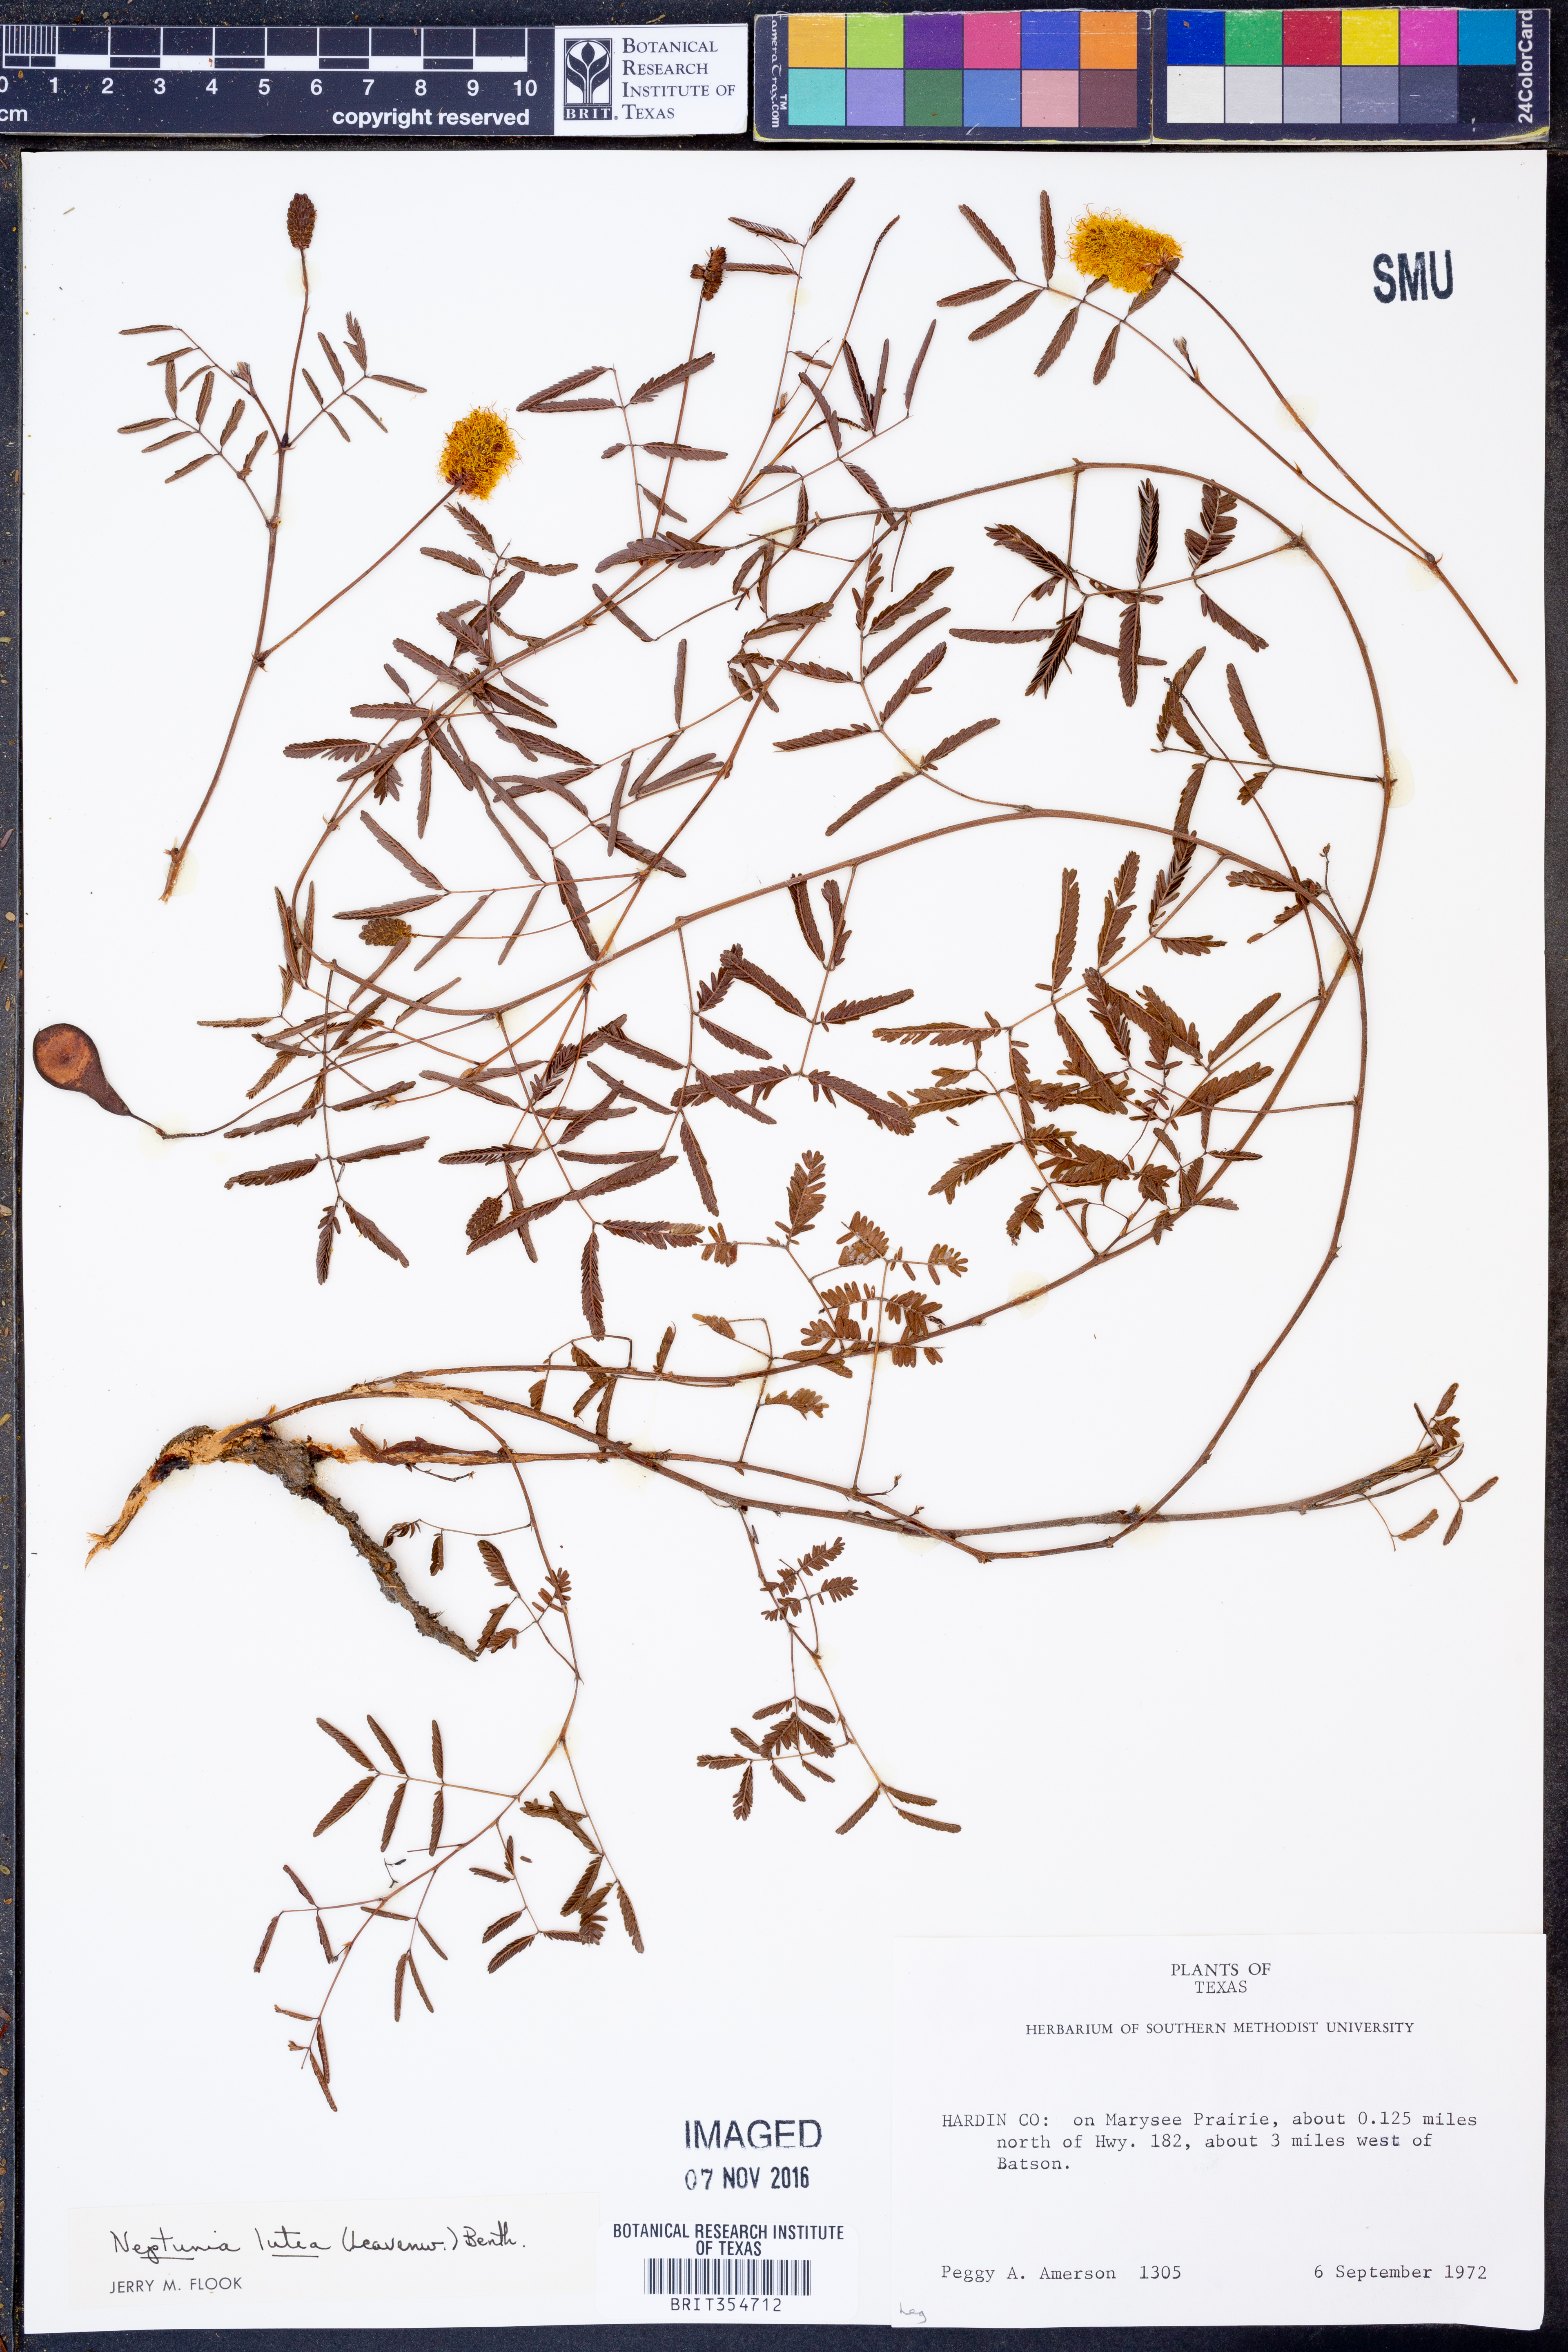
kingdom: Plantae
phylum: Tracheophyta
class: Magnoliopsida
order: Fabales
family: Fabaceae
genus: Neptunia
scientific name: Neptunia lutea
